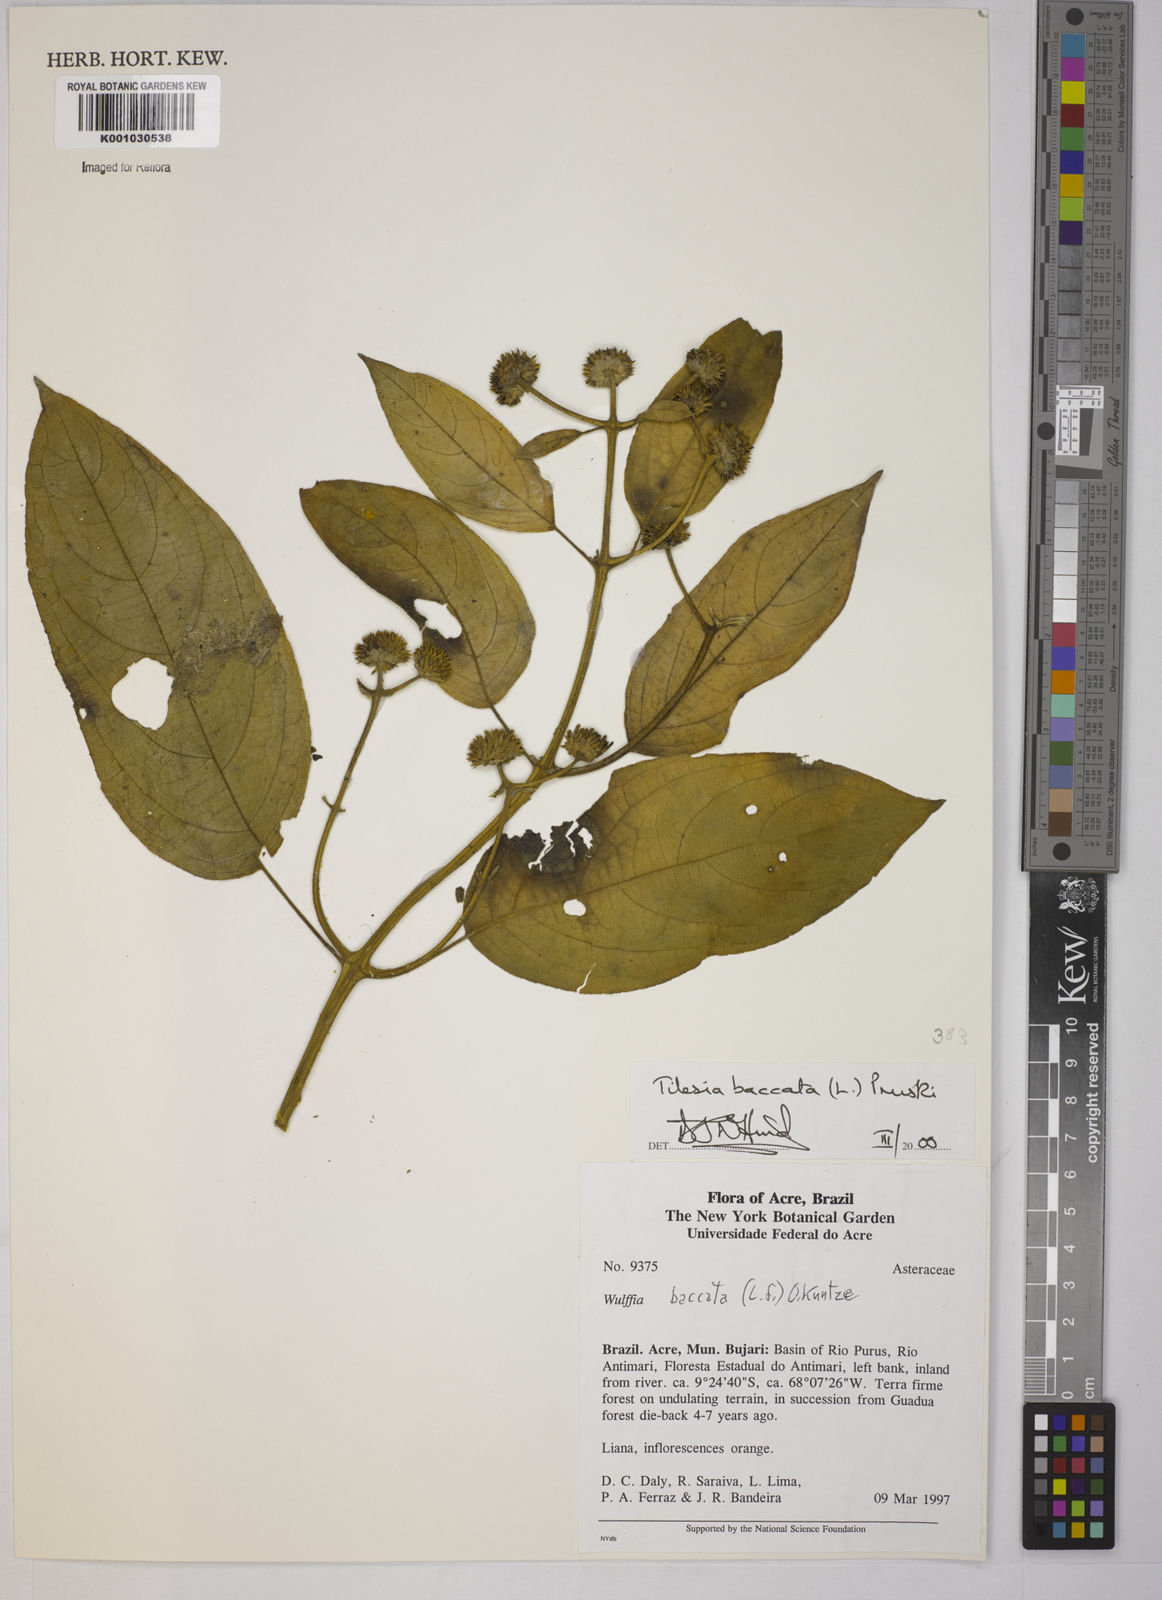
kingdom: Plantae
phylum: Tracheophyta
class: Magnoliopsida
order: Asterales
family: Asteraceae
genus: Tilesia
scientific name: Tilesia baccata
